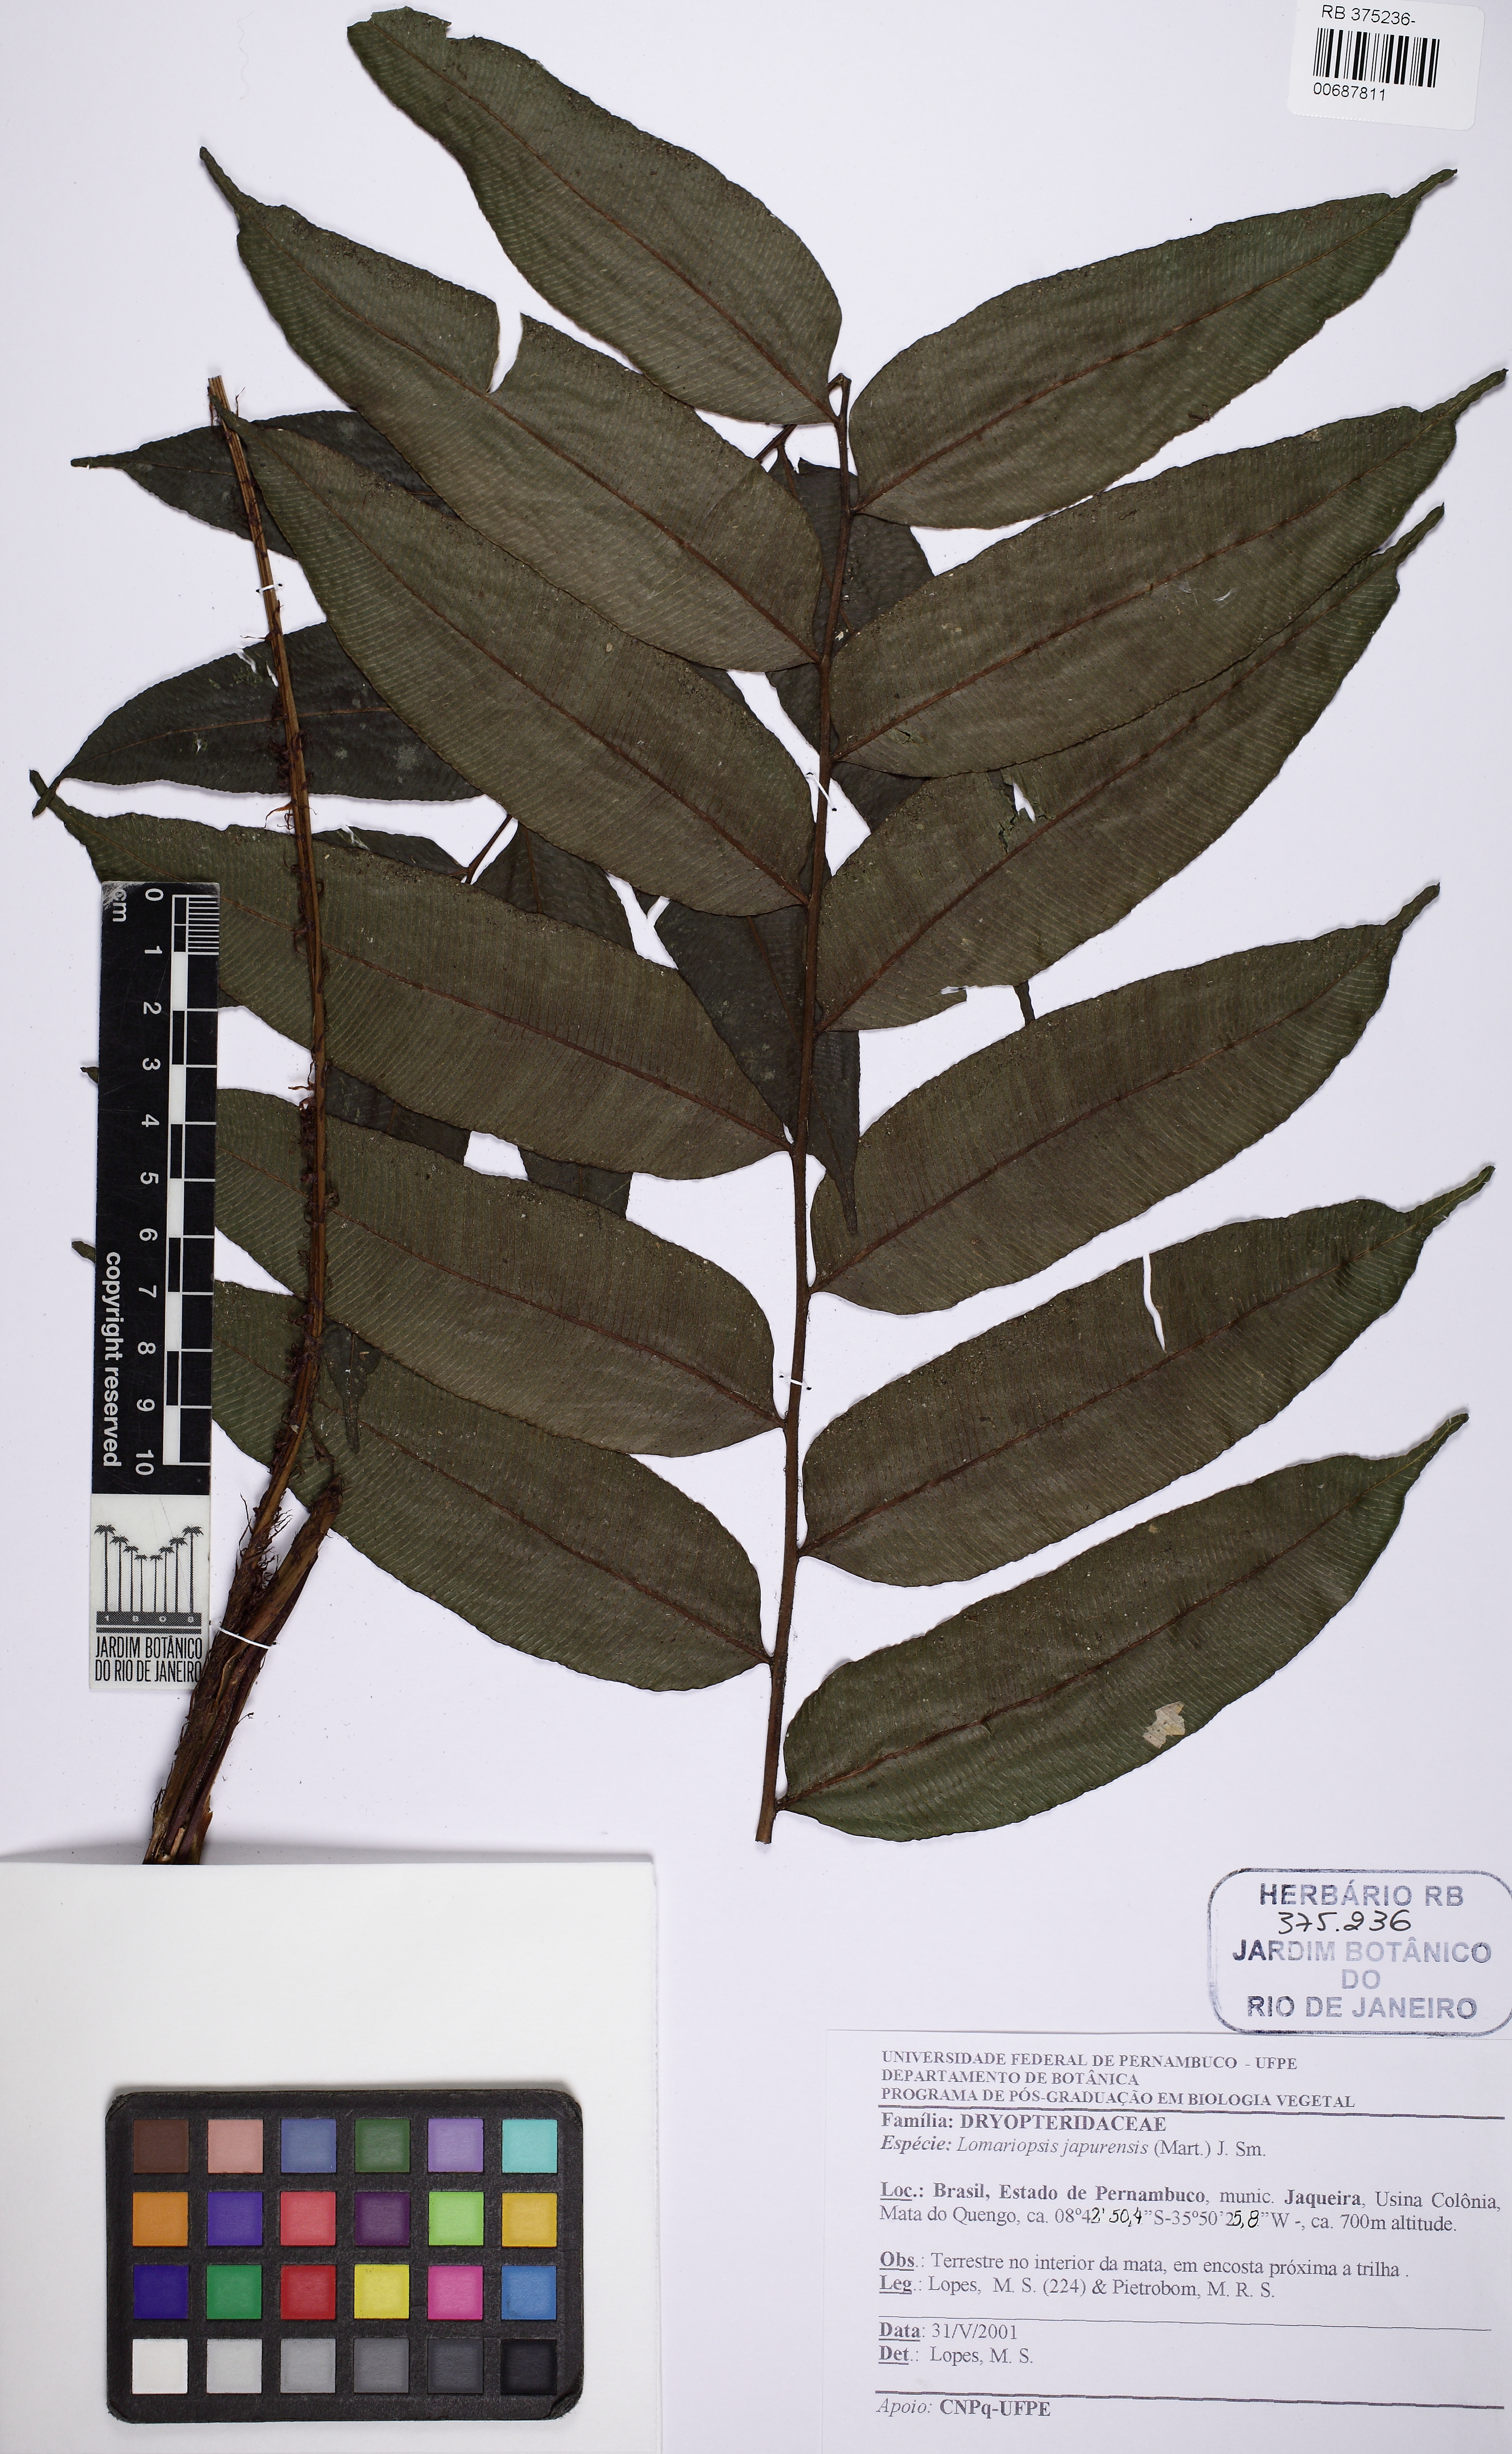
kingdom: Plantae
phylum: Tracheophyta
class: Polypodiopsida
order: Polypodiales
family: Lomariopsidaceae
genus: Lomariopsis
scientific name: Lomariopsis japurensis
